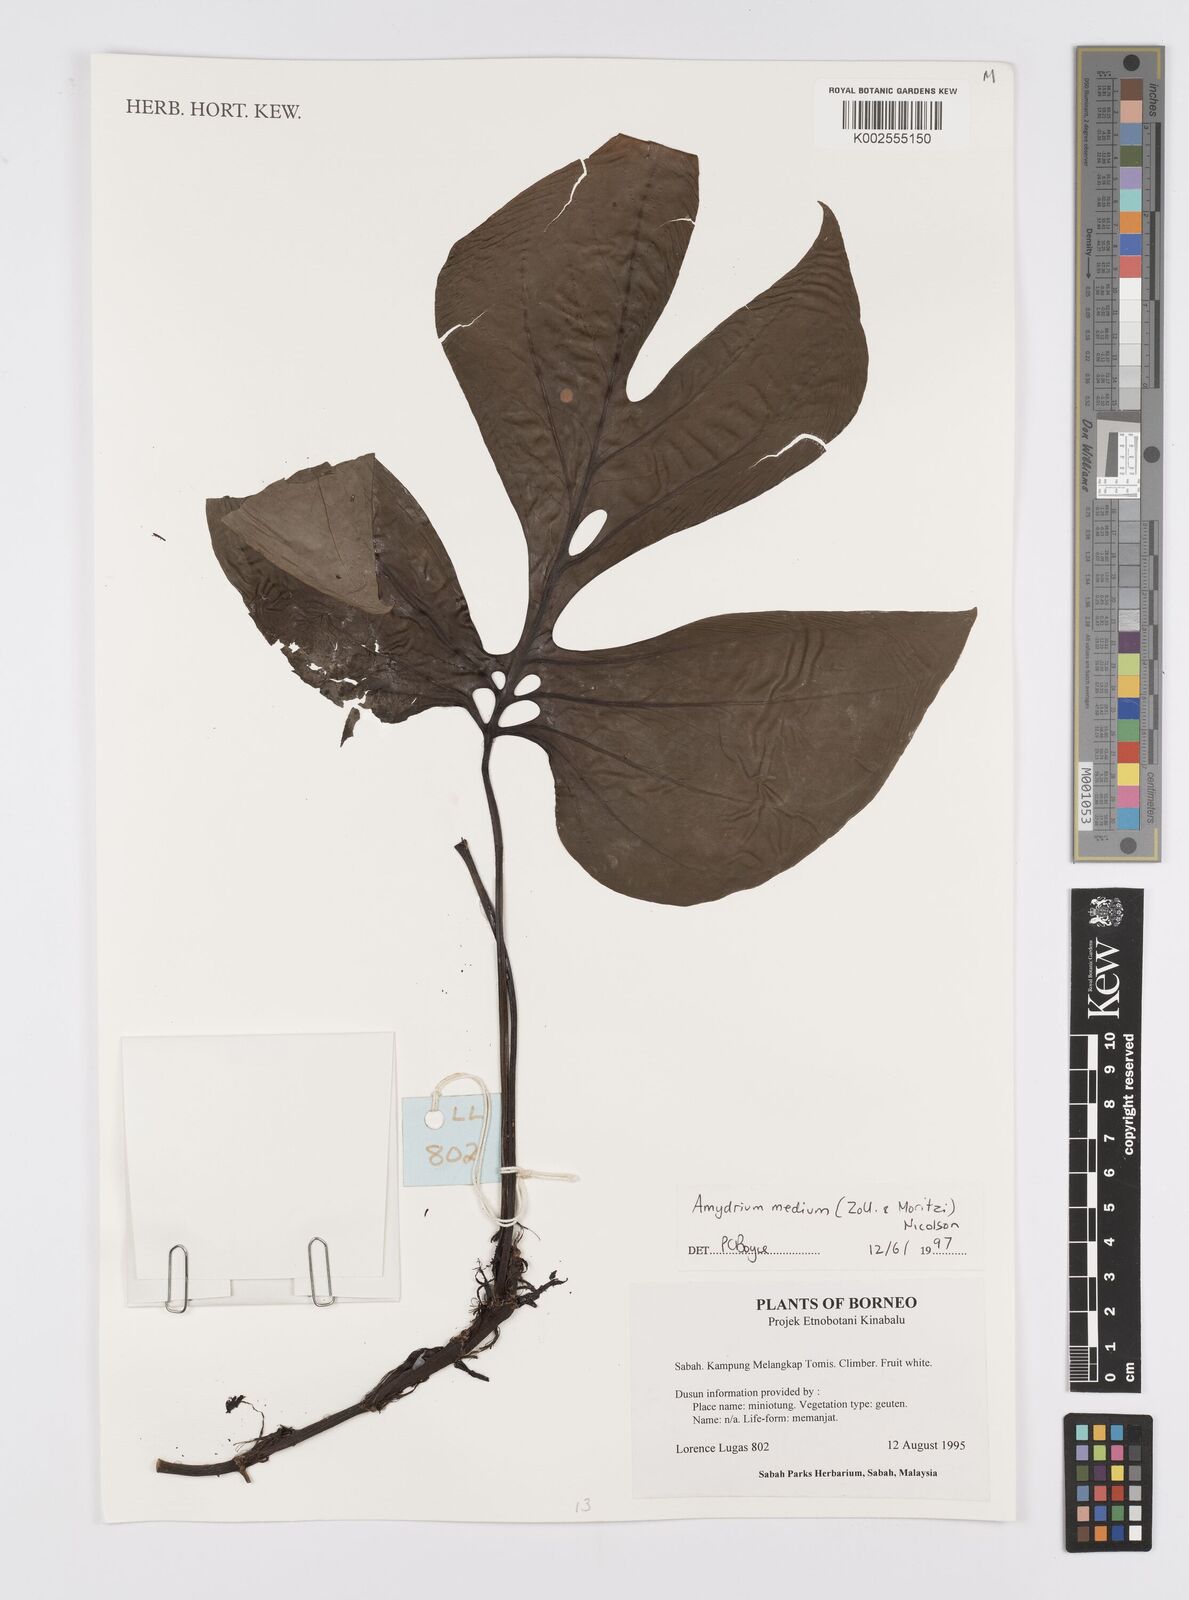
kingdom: Plantae
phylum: Tracheophyta
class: Liliopsida
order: Alismatales
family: Araceae
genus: Amydrium
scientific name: Amydrium medium
